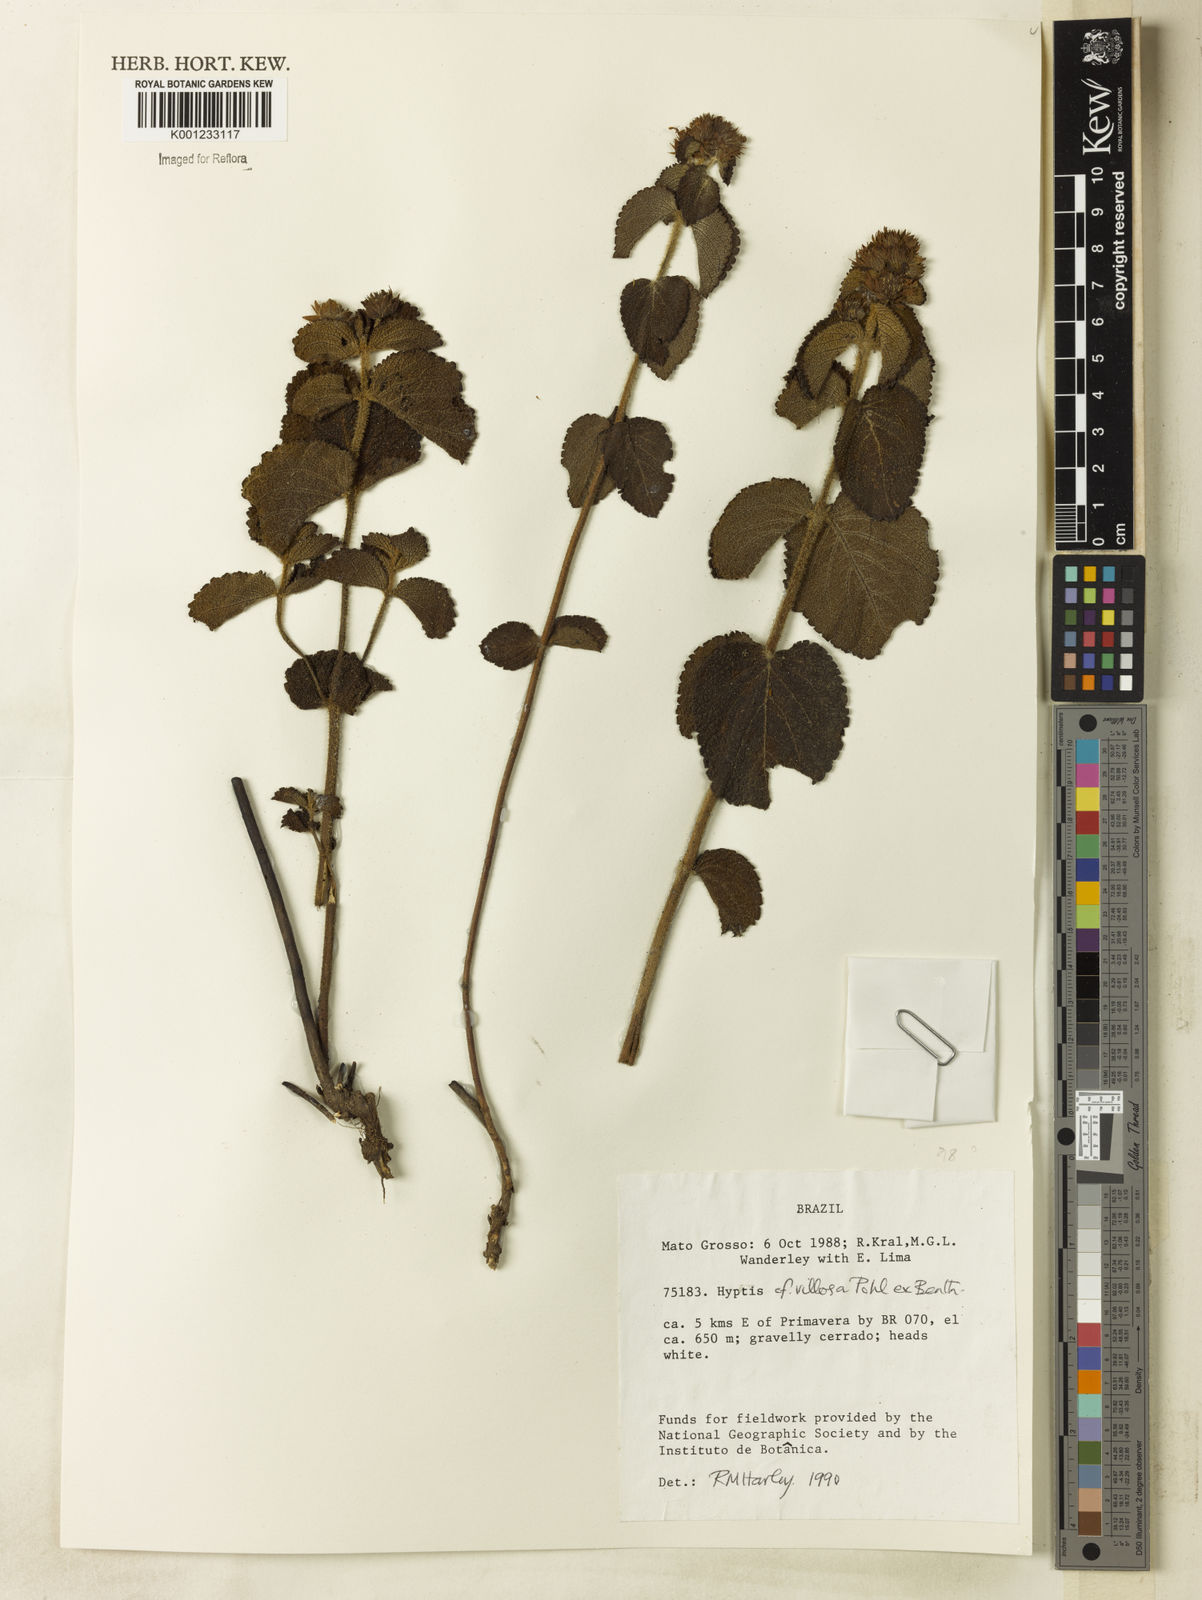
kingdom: Plantae
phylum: Tracheophyta
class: Magnoliopsida
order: Lamiales
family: Lamiaceae
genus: Hyptis
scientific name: Hyptis villosa
